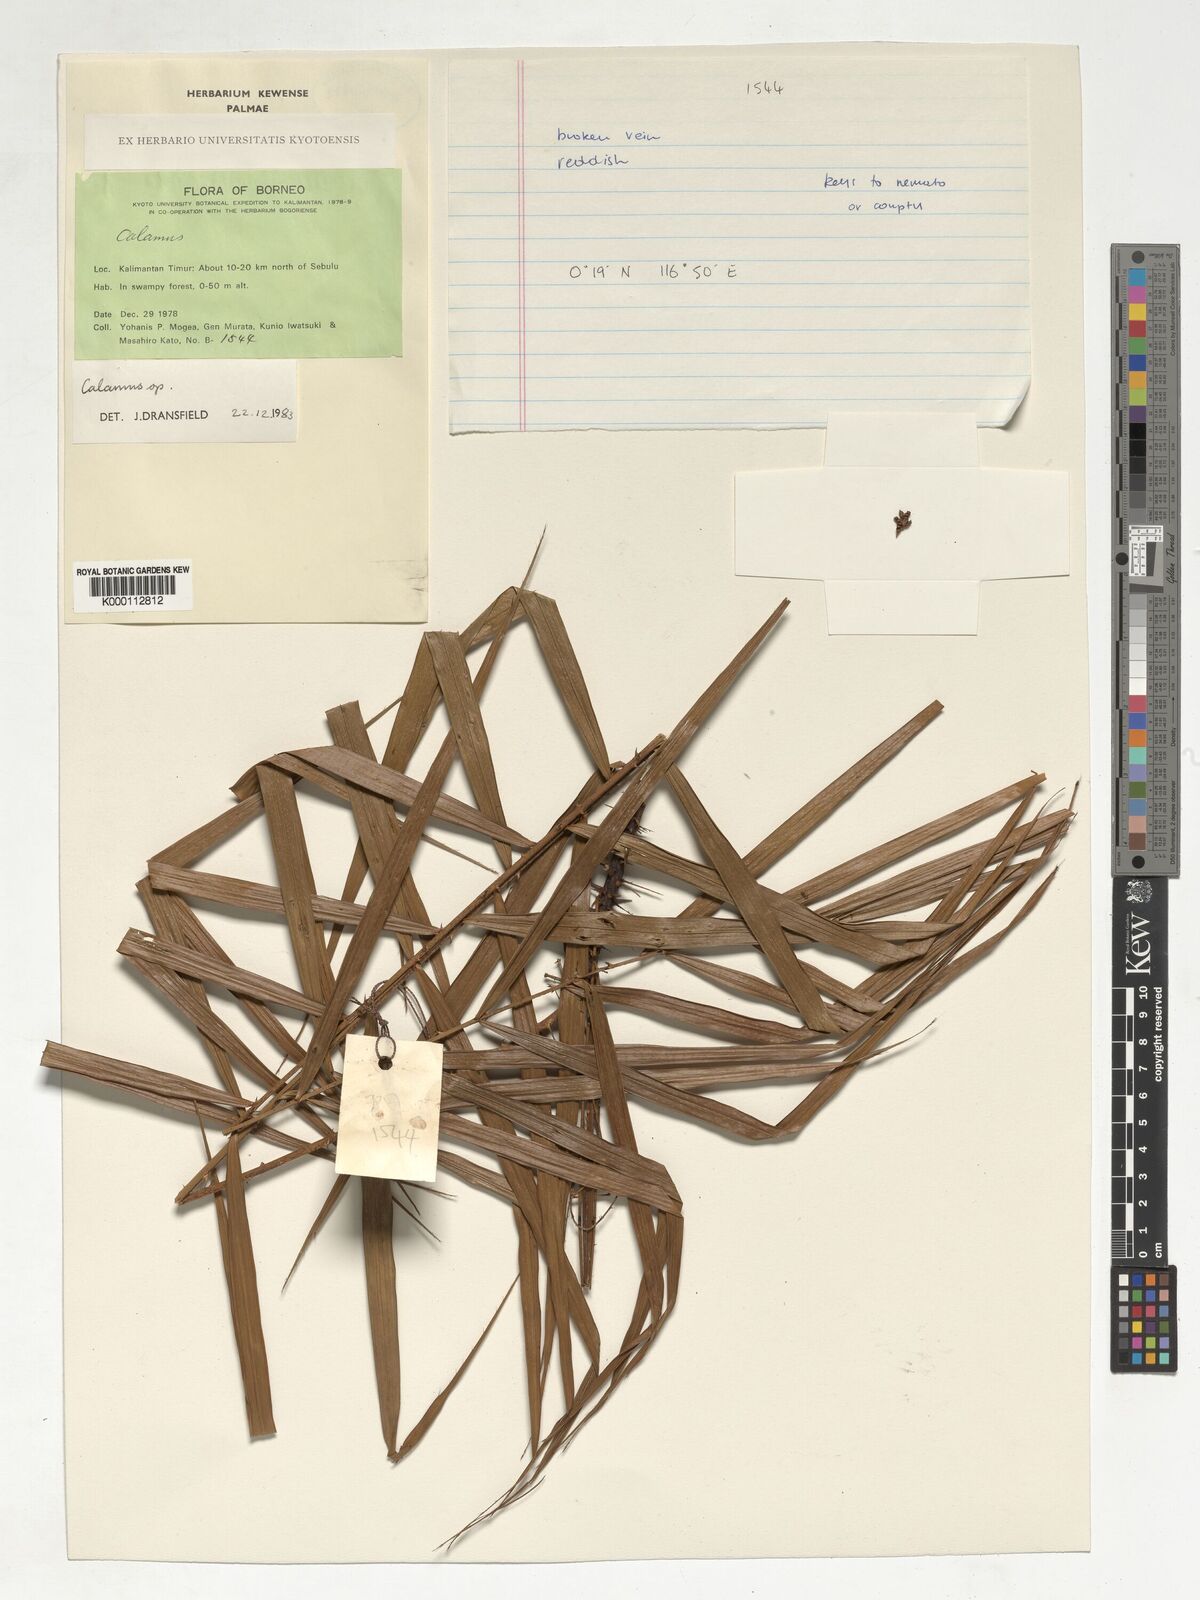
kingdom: Plantae
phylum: Tracheophyta
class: Liliopsida
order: Arecales
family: Arecaceae
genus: Calamus
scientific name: Calamus
